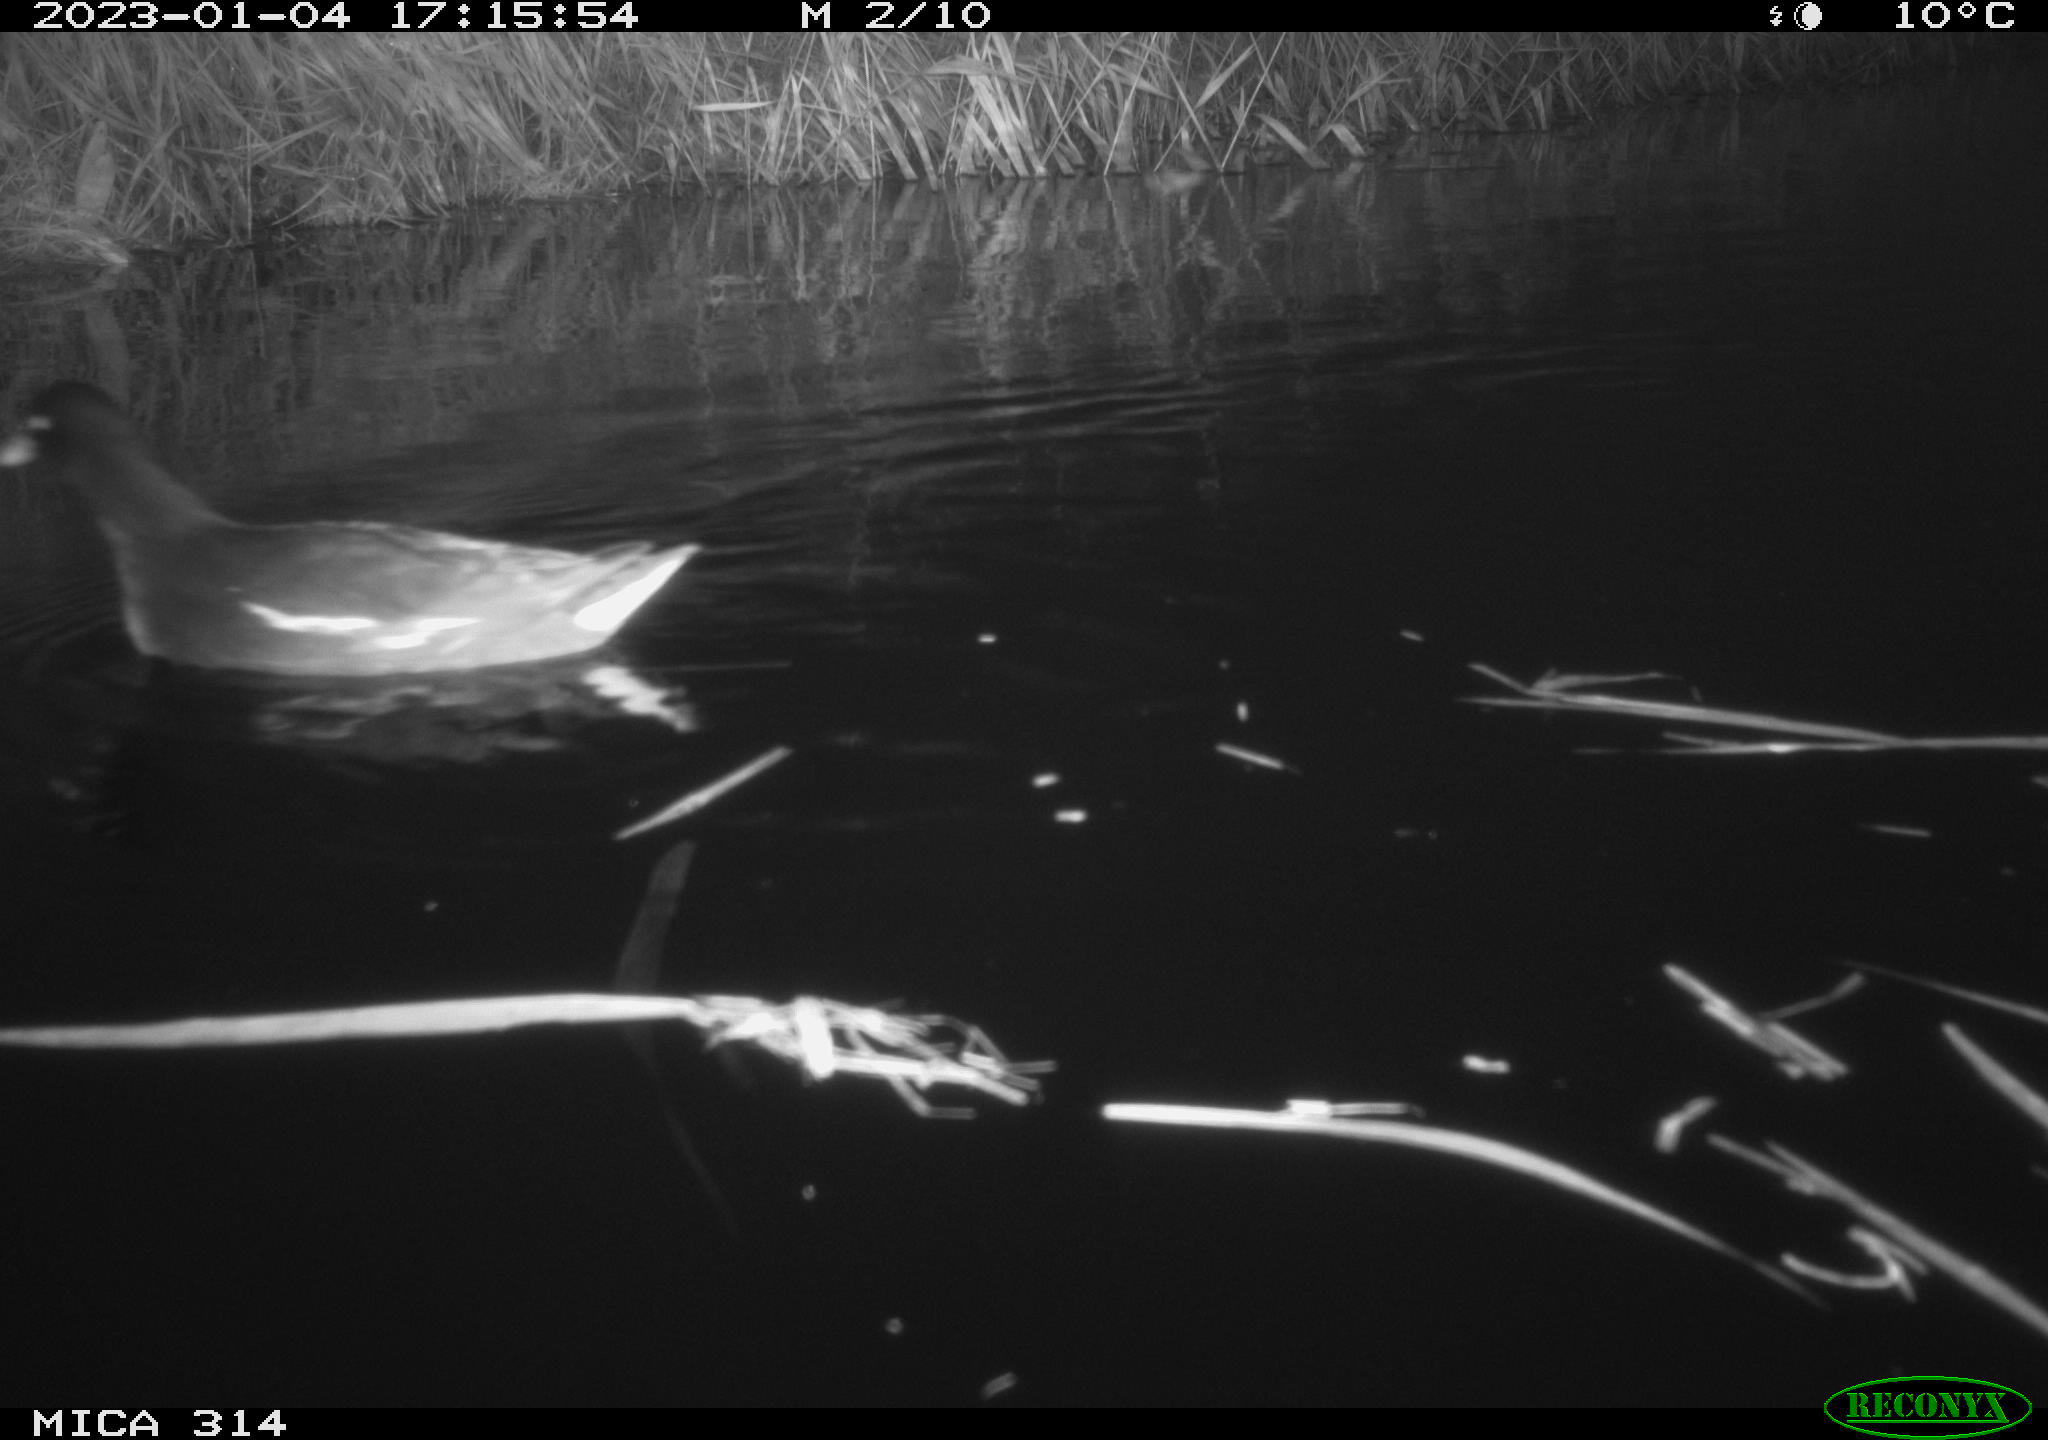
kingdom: Animalia
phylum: Chordata
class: Aves
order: Gruiformes
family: Rallidae
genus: Gallinula
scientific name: Gallinula chloropus
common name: Common moorhen
